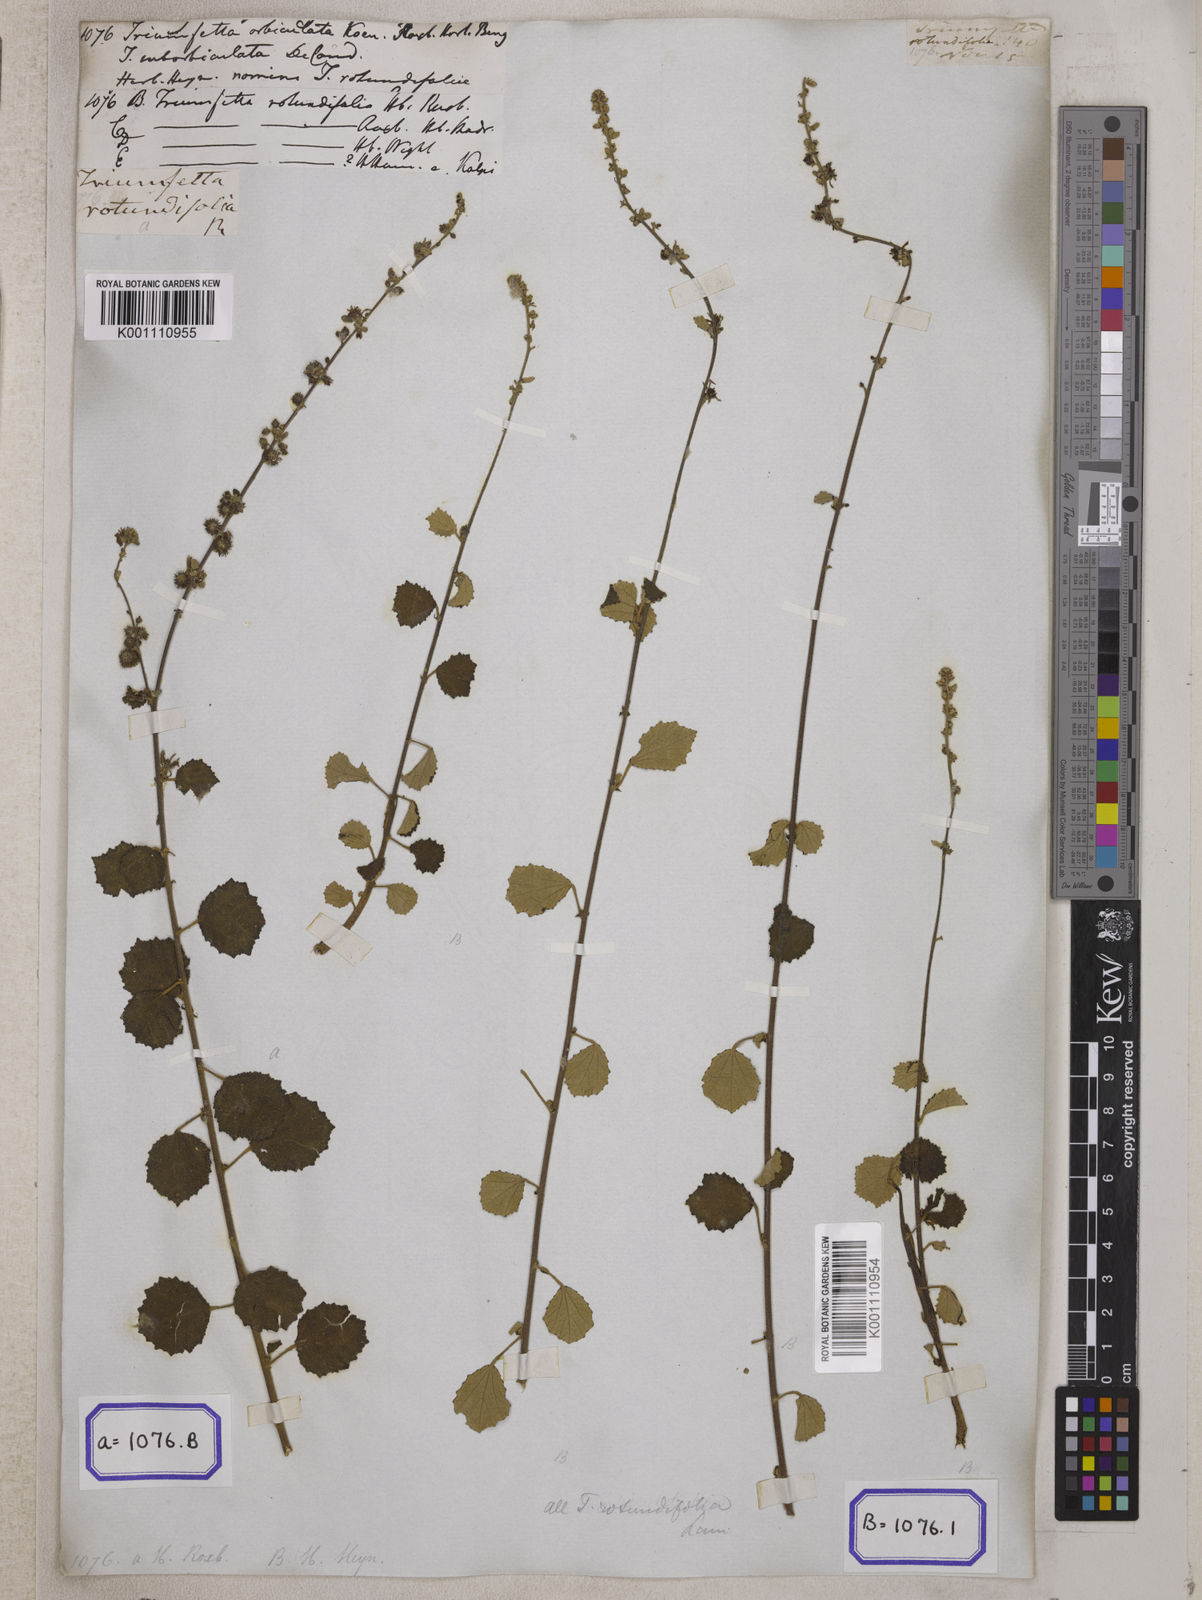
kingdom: Plantae
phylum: Tracheophyta
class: Magnoliopsida
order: Malvales
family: Malvaceae
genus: Triumfetta
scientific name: Triumfetta pilosa
